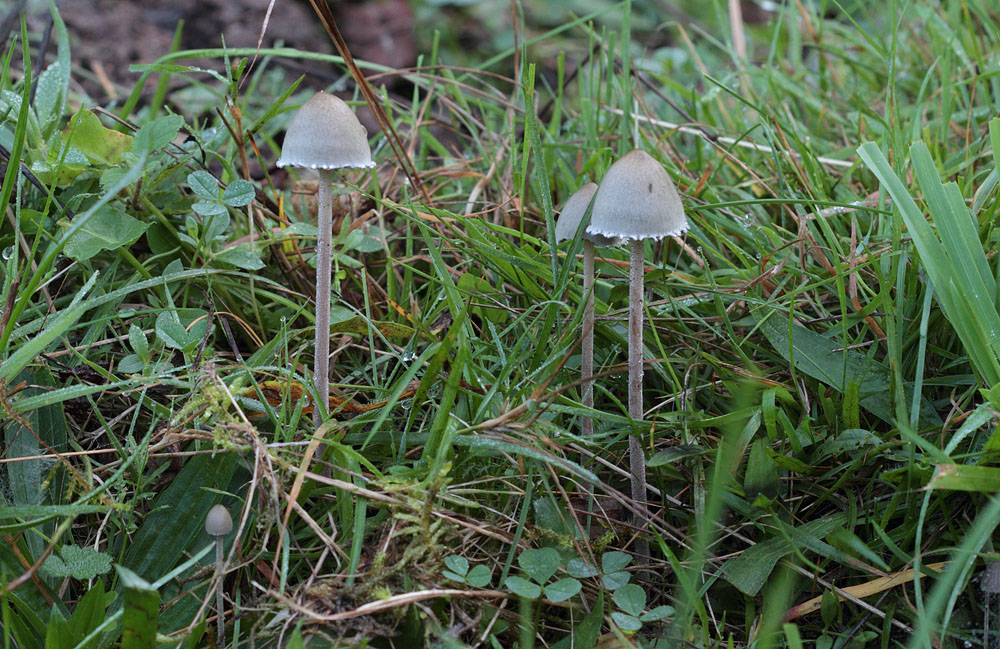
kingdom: Fungi
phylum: Basidiomycota
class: Agaricomycetes
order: Agaricales
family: Bolbitiaceae
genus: Panaeolus
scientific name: Panaeolus papilionaceus
